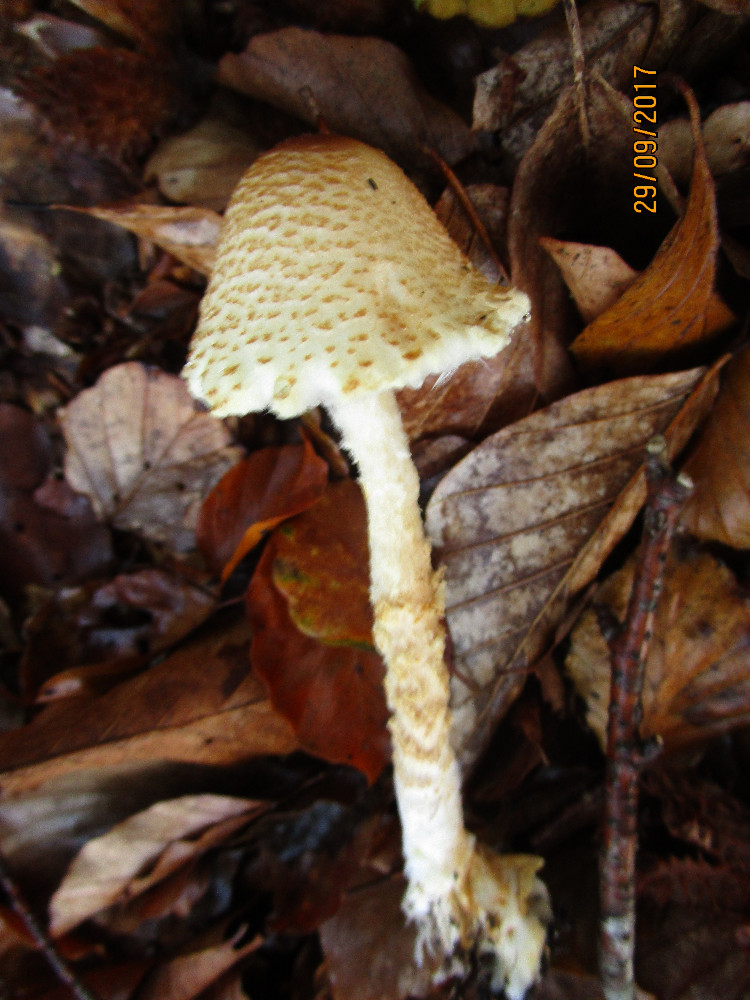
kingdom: Fungi
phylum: Basidiomycota
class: Agaricomycetes
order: Agaricales
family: Agaricaceae
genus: Lepiota
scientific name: Lepiota magnispora
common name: gulfnugget parasolhat
